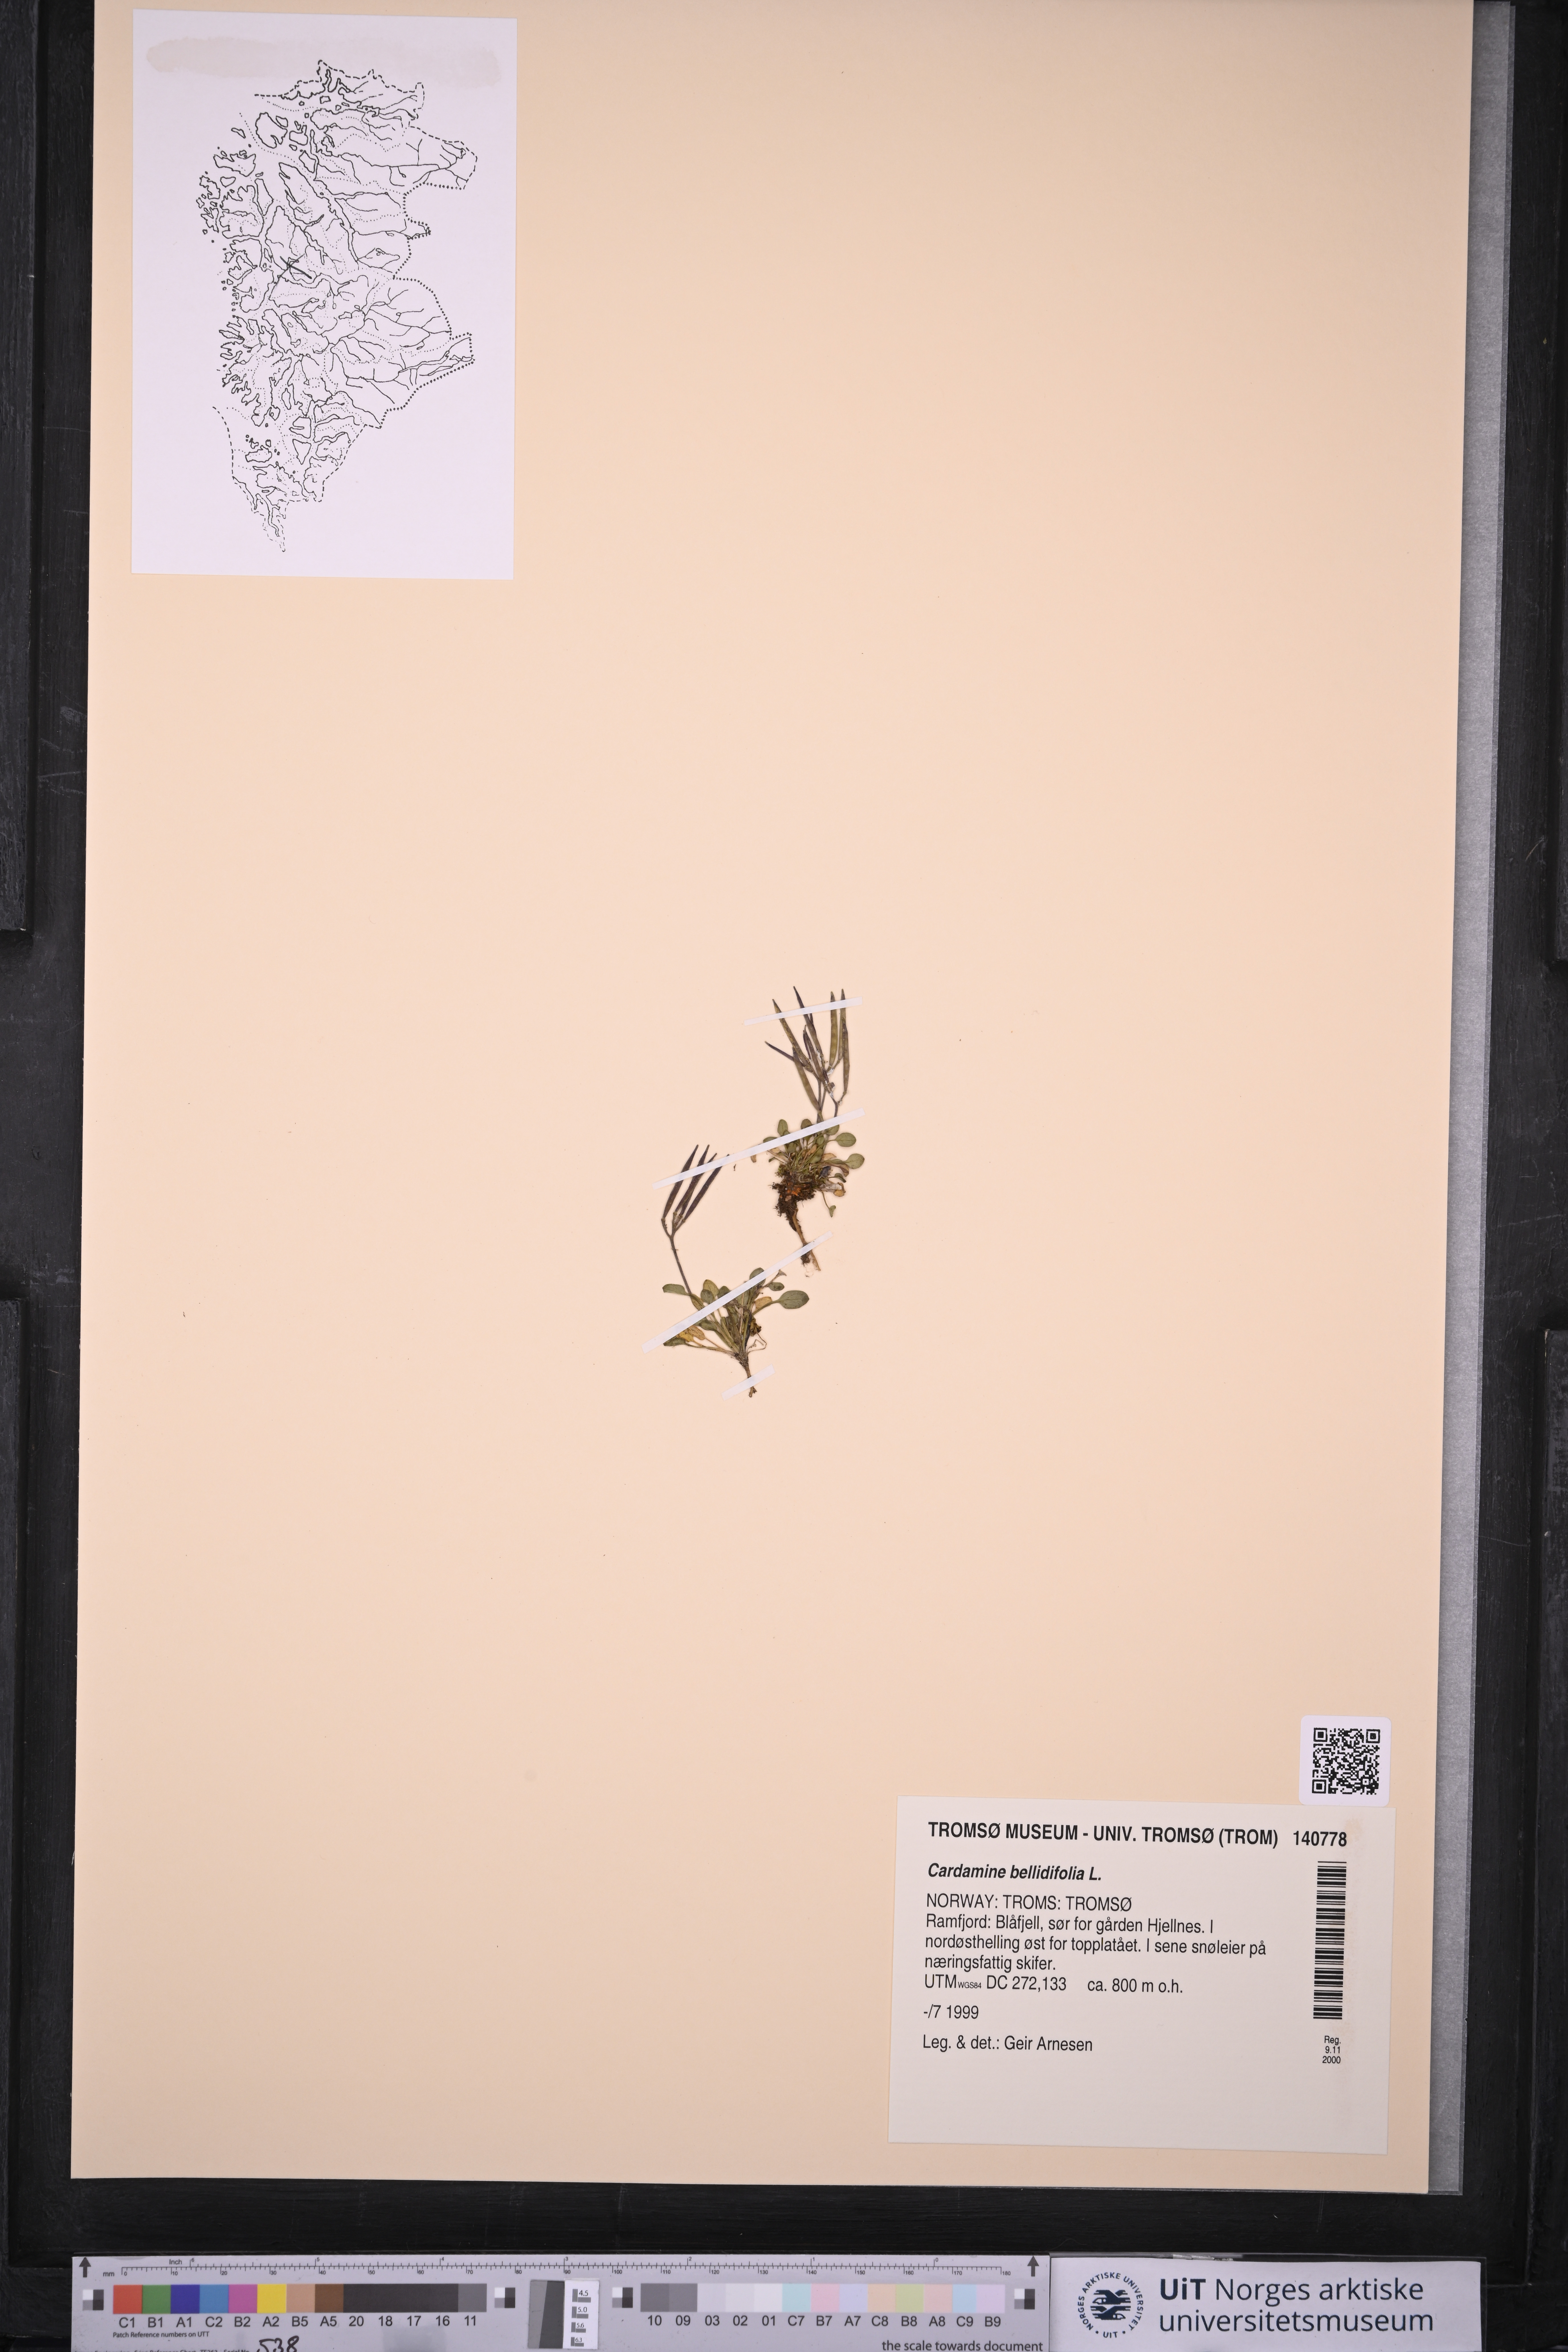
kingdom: Plantae
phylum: Tracheophyta
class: Magnoliopsida
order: Brassicales
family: Brassicaceae
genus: Cardamine
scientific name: Cardamine bellidifolia
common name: Alpine bittercress
